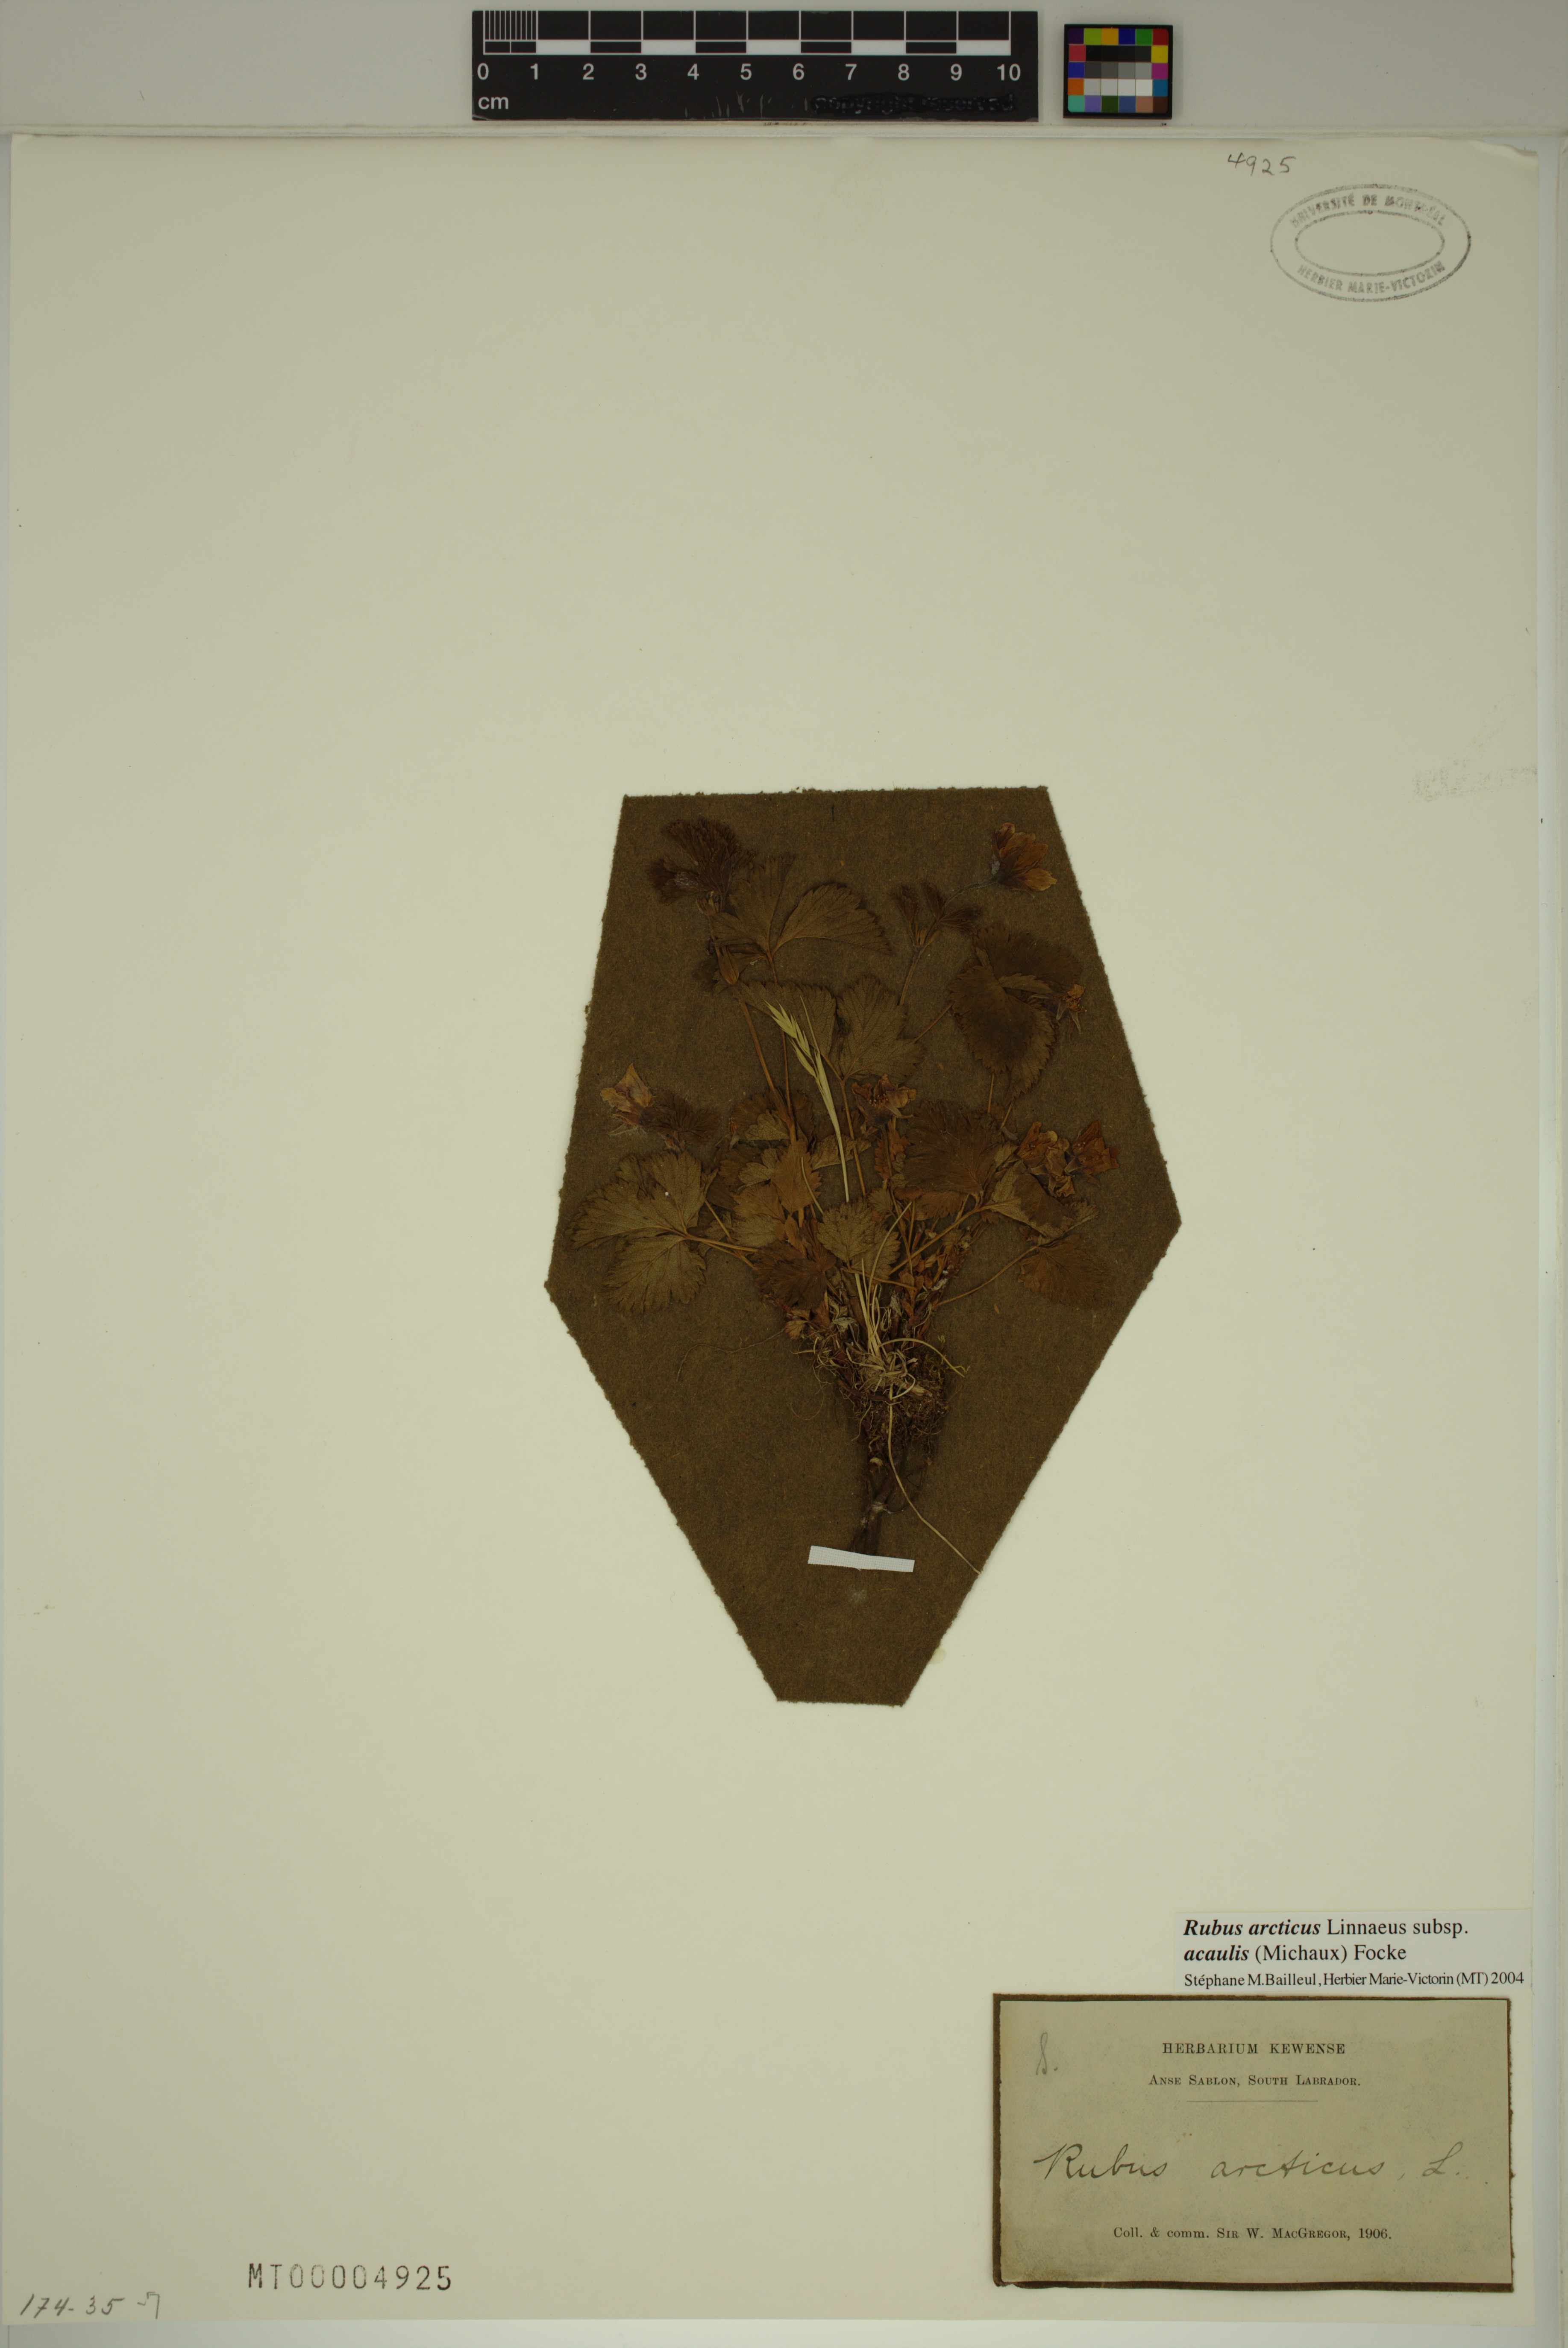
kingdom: Plantae
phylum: Tracheophyta
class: Magnoliopsida
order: Rosales
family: Rosaceae
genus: Rubus
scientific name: Rubus arcticus
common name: Arctic bramble
